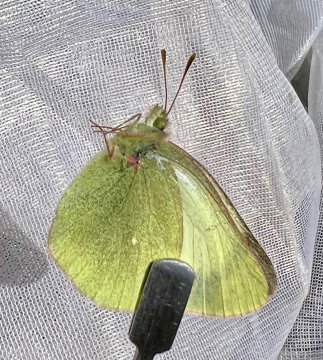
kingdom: Animalia
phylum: Arthropoda
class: Insecta
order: Lepidoptera
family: Pieridae
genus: Colias
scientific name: Colias palaeno
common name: Chippewa Sulphur
